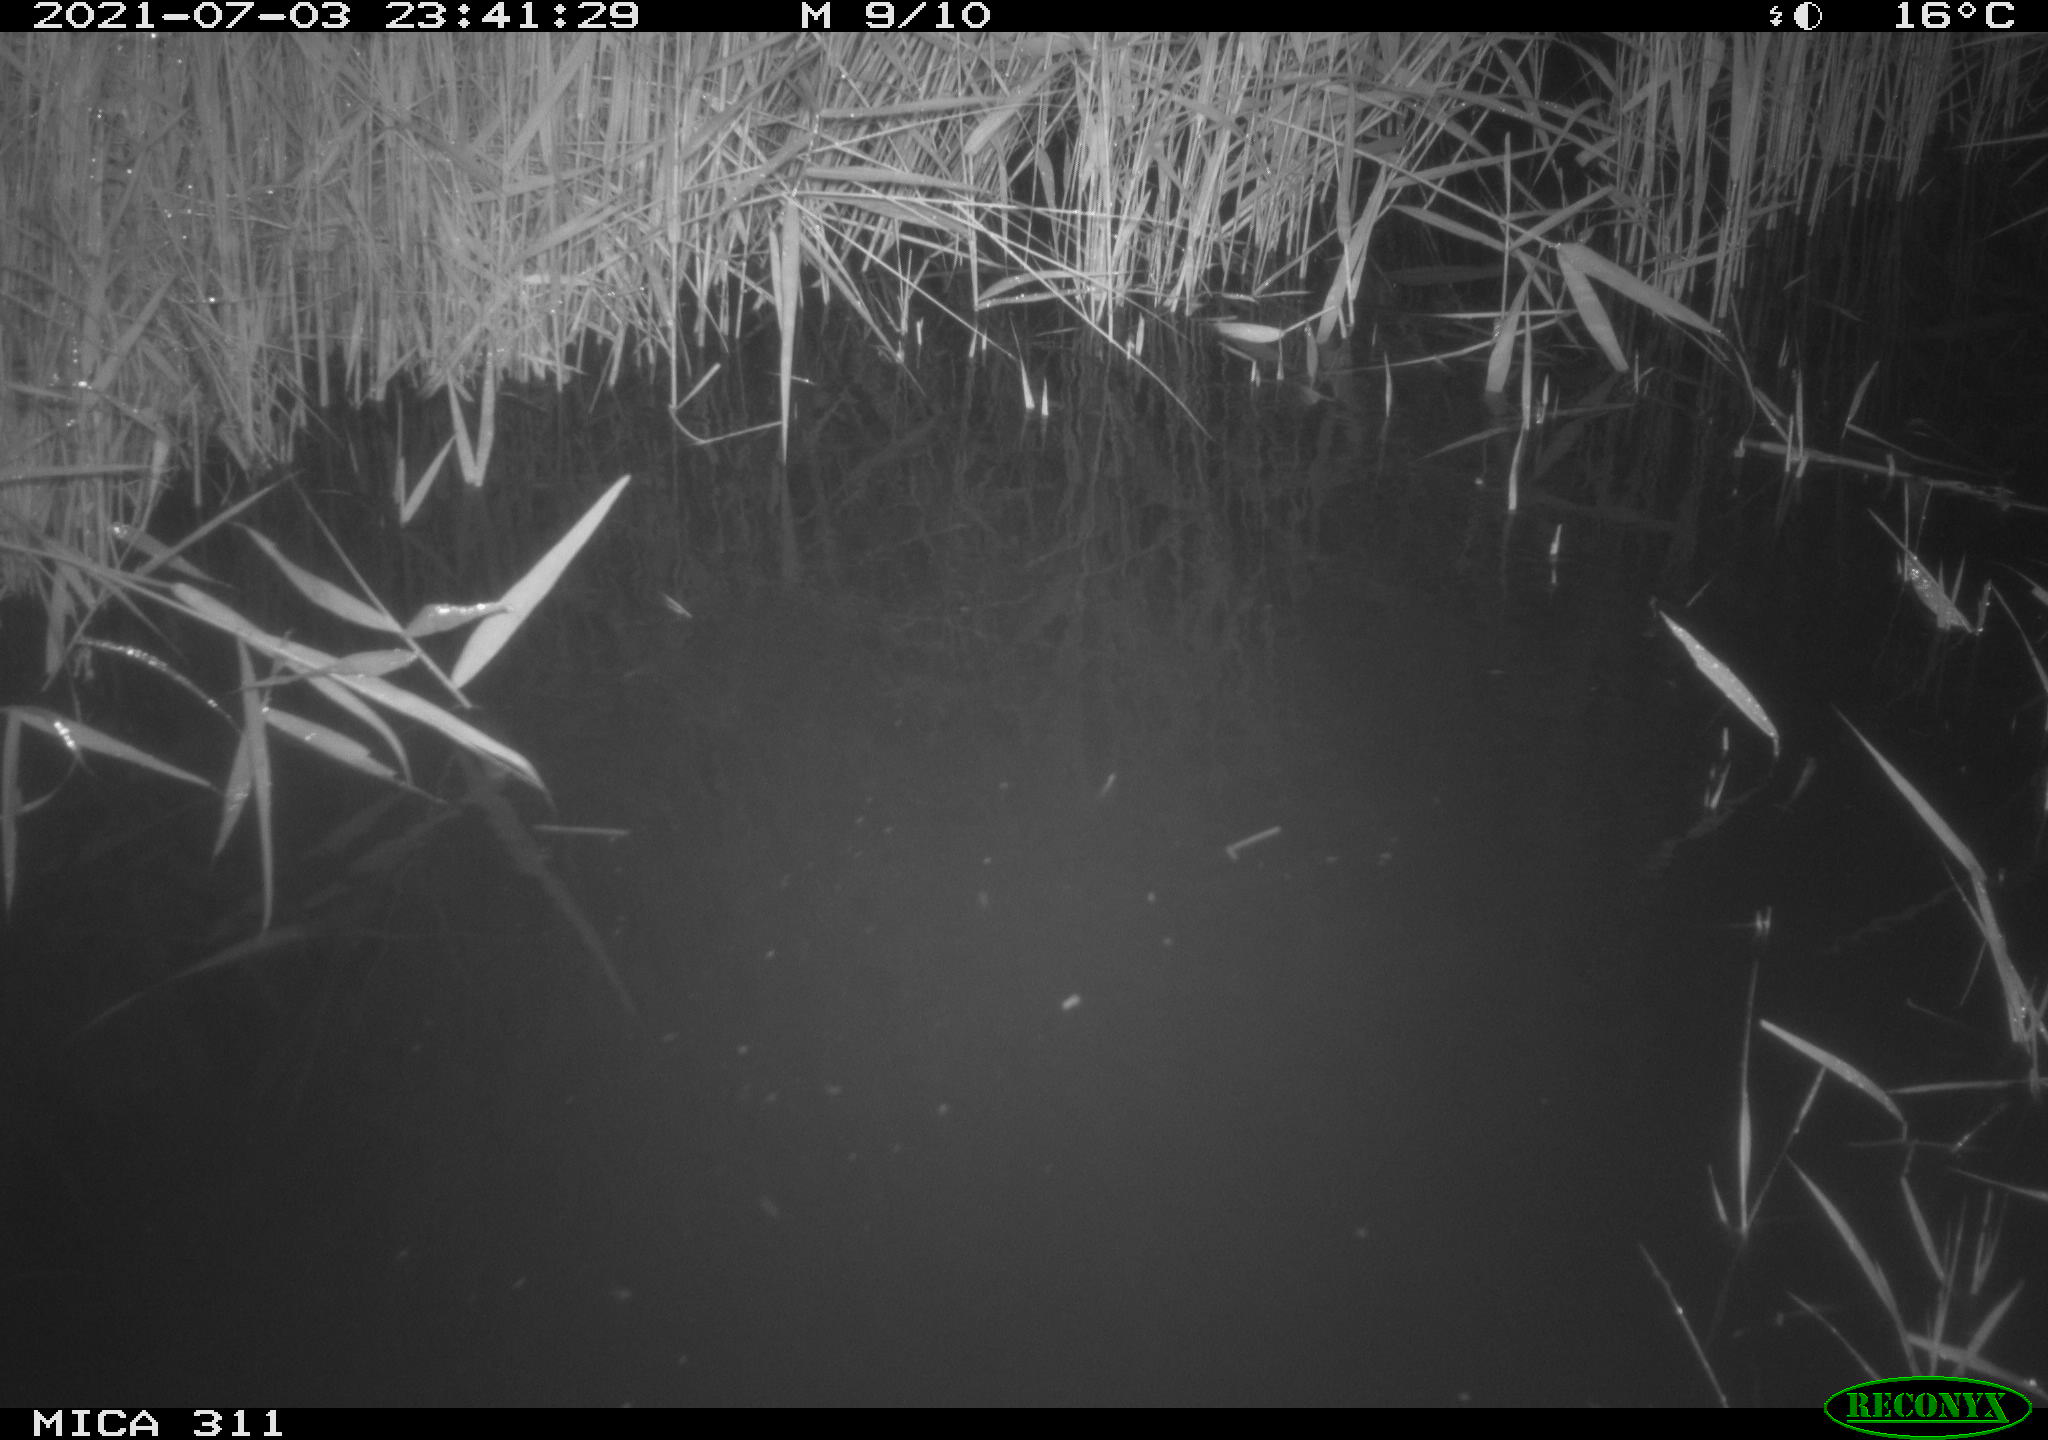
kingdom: Animalia
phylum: Chordata
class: Mammalia
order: Rodentia
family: Muridae
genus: Rattus
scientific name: Rattus norvegicus
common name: Brown rat
